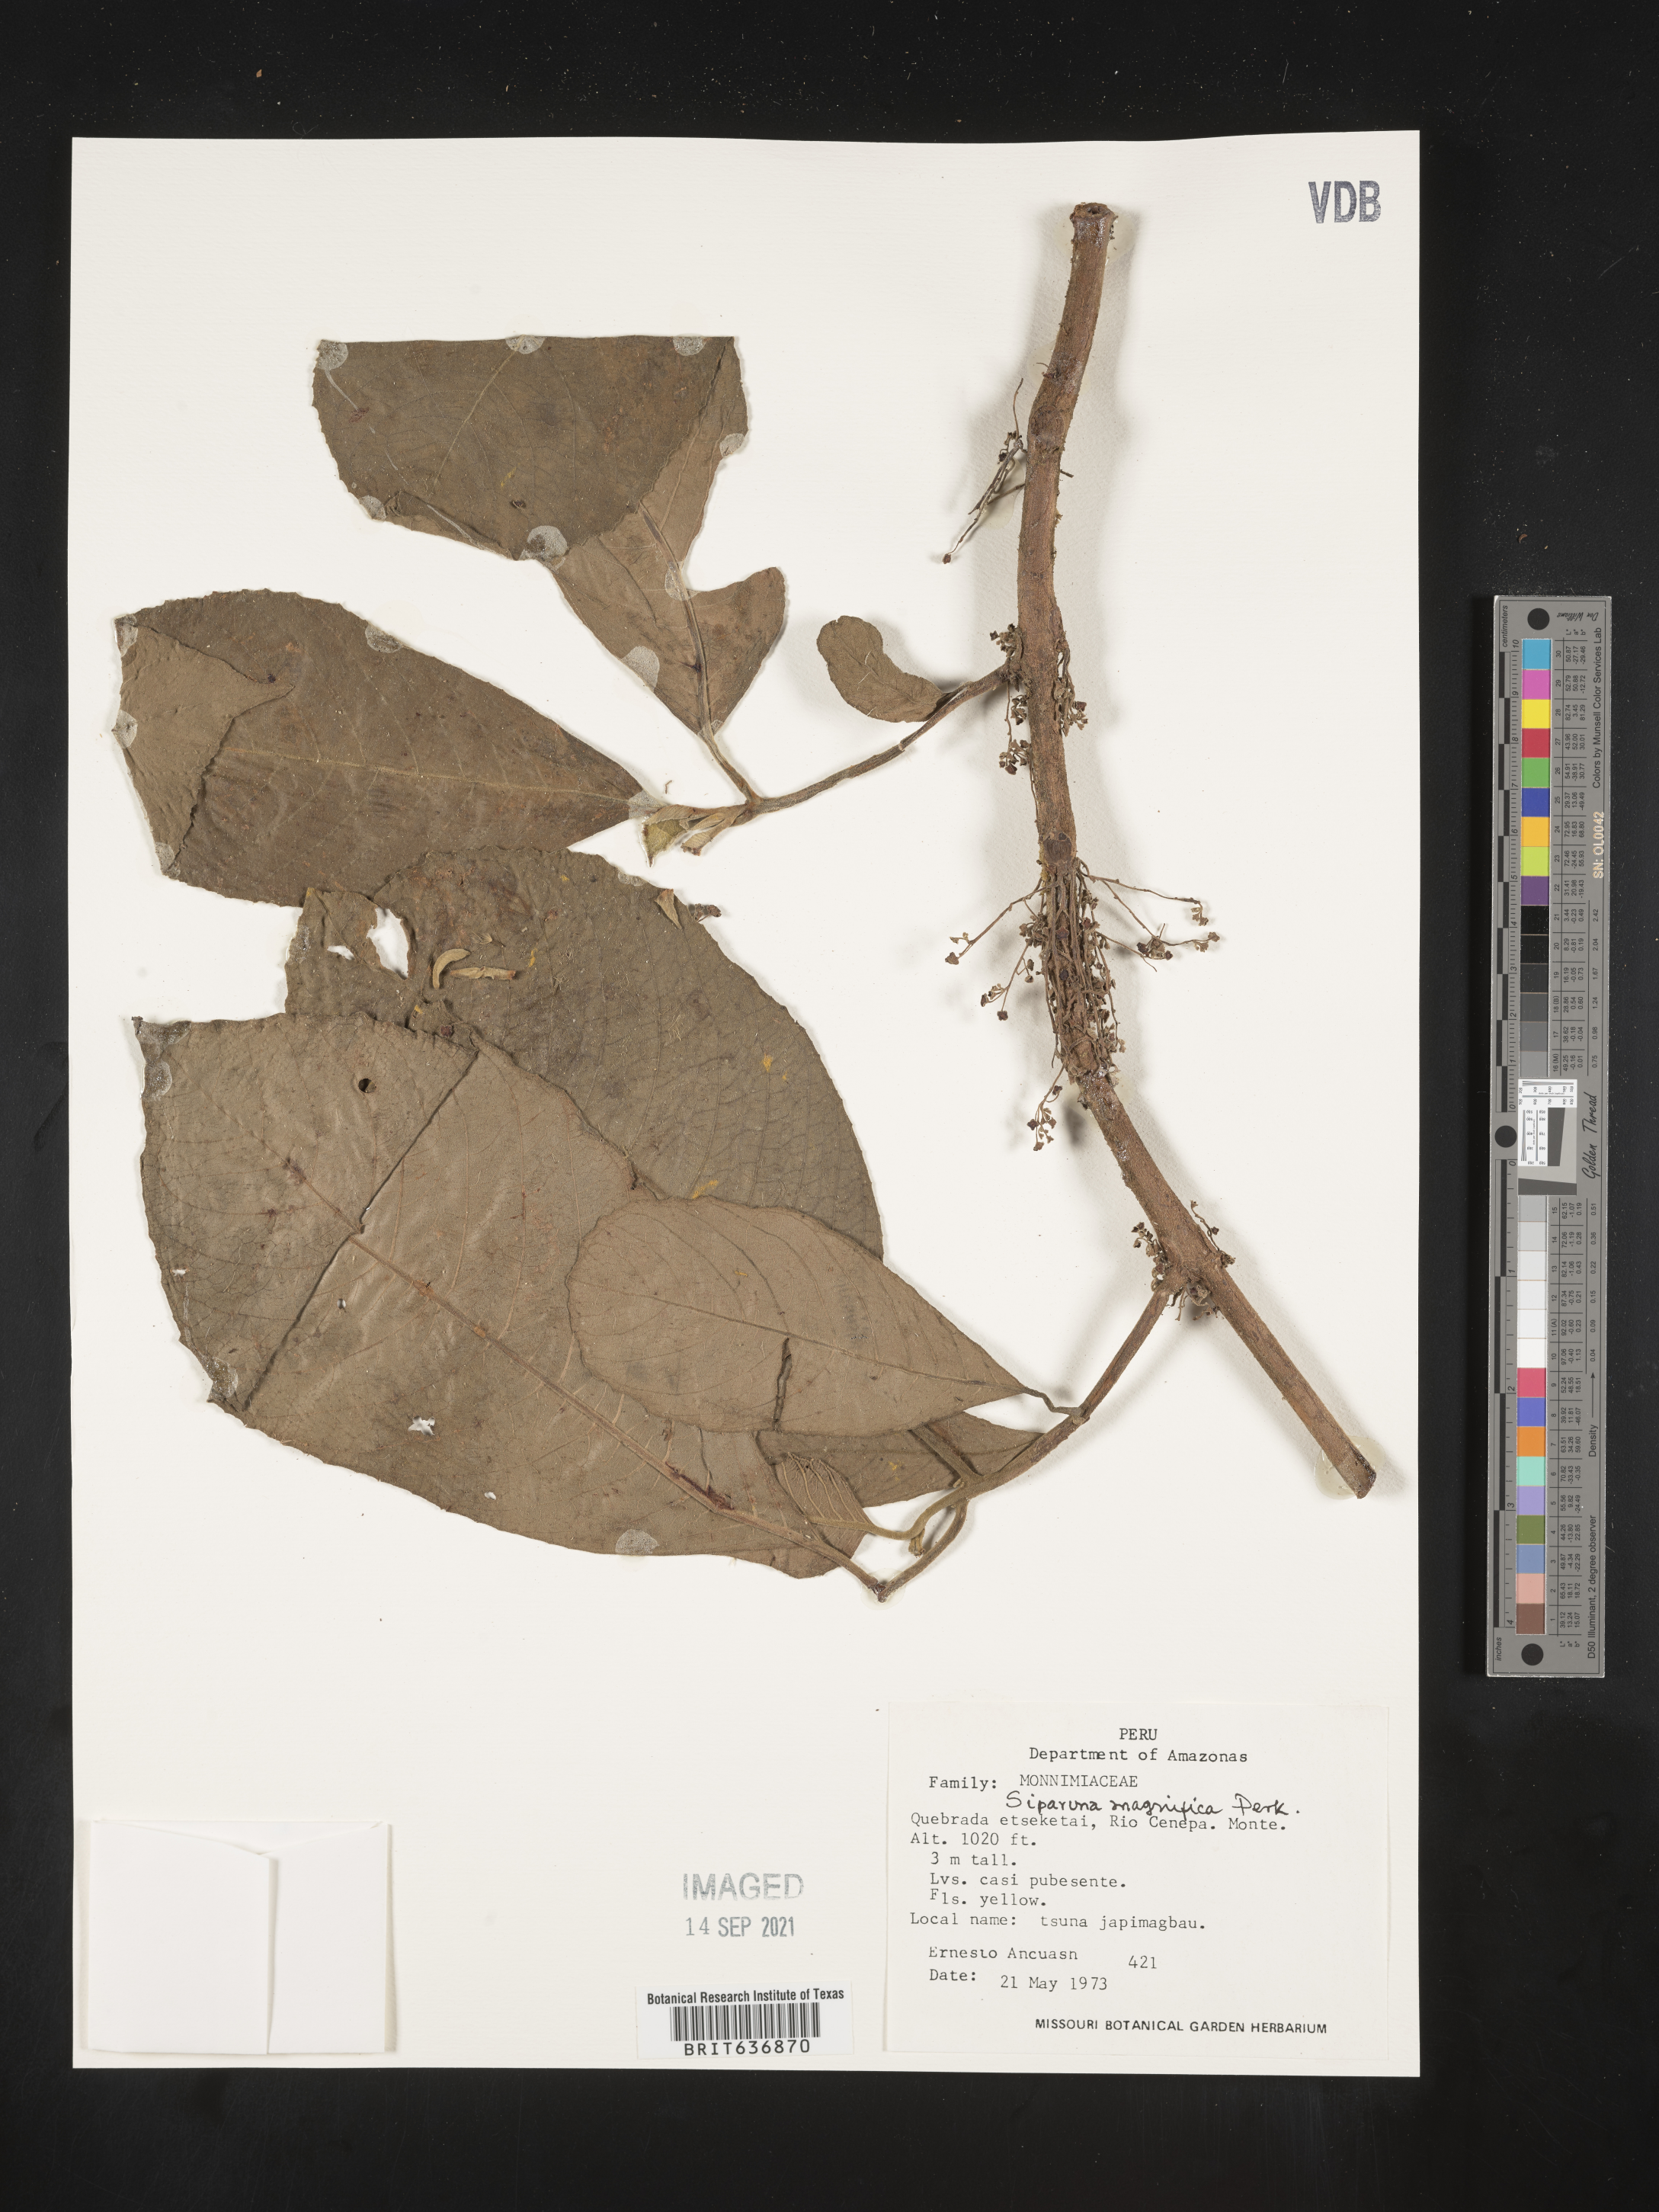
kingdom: Plantae
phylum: Tracheophyta
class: Magnoliopsida
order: Laurales
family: Siparunaceae
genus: Siparuna
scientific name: Siparuna
